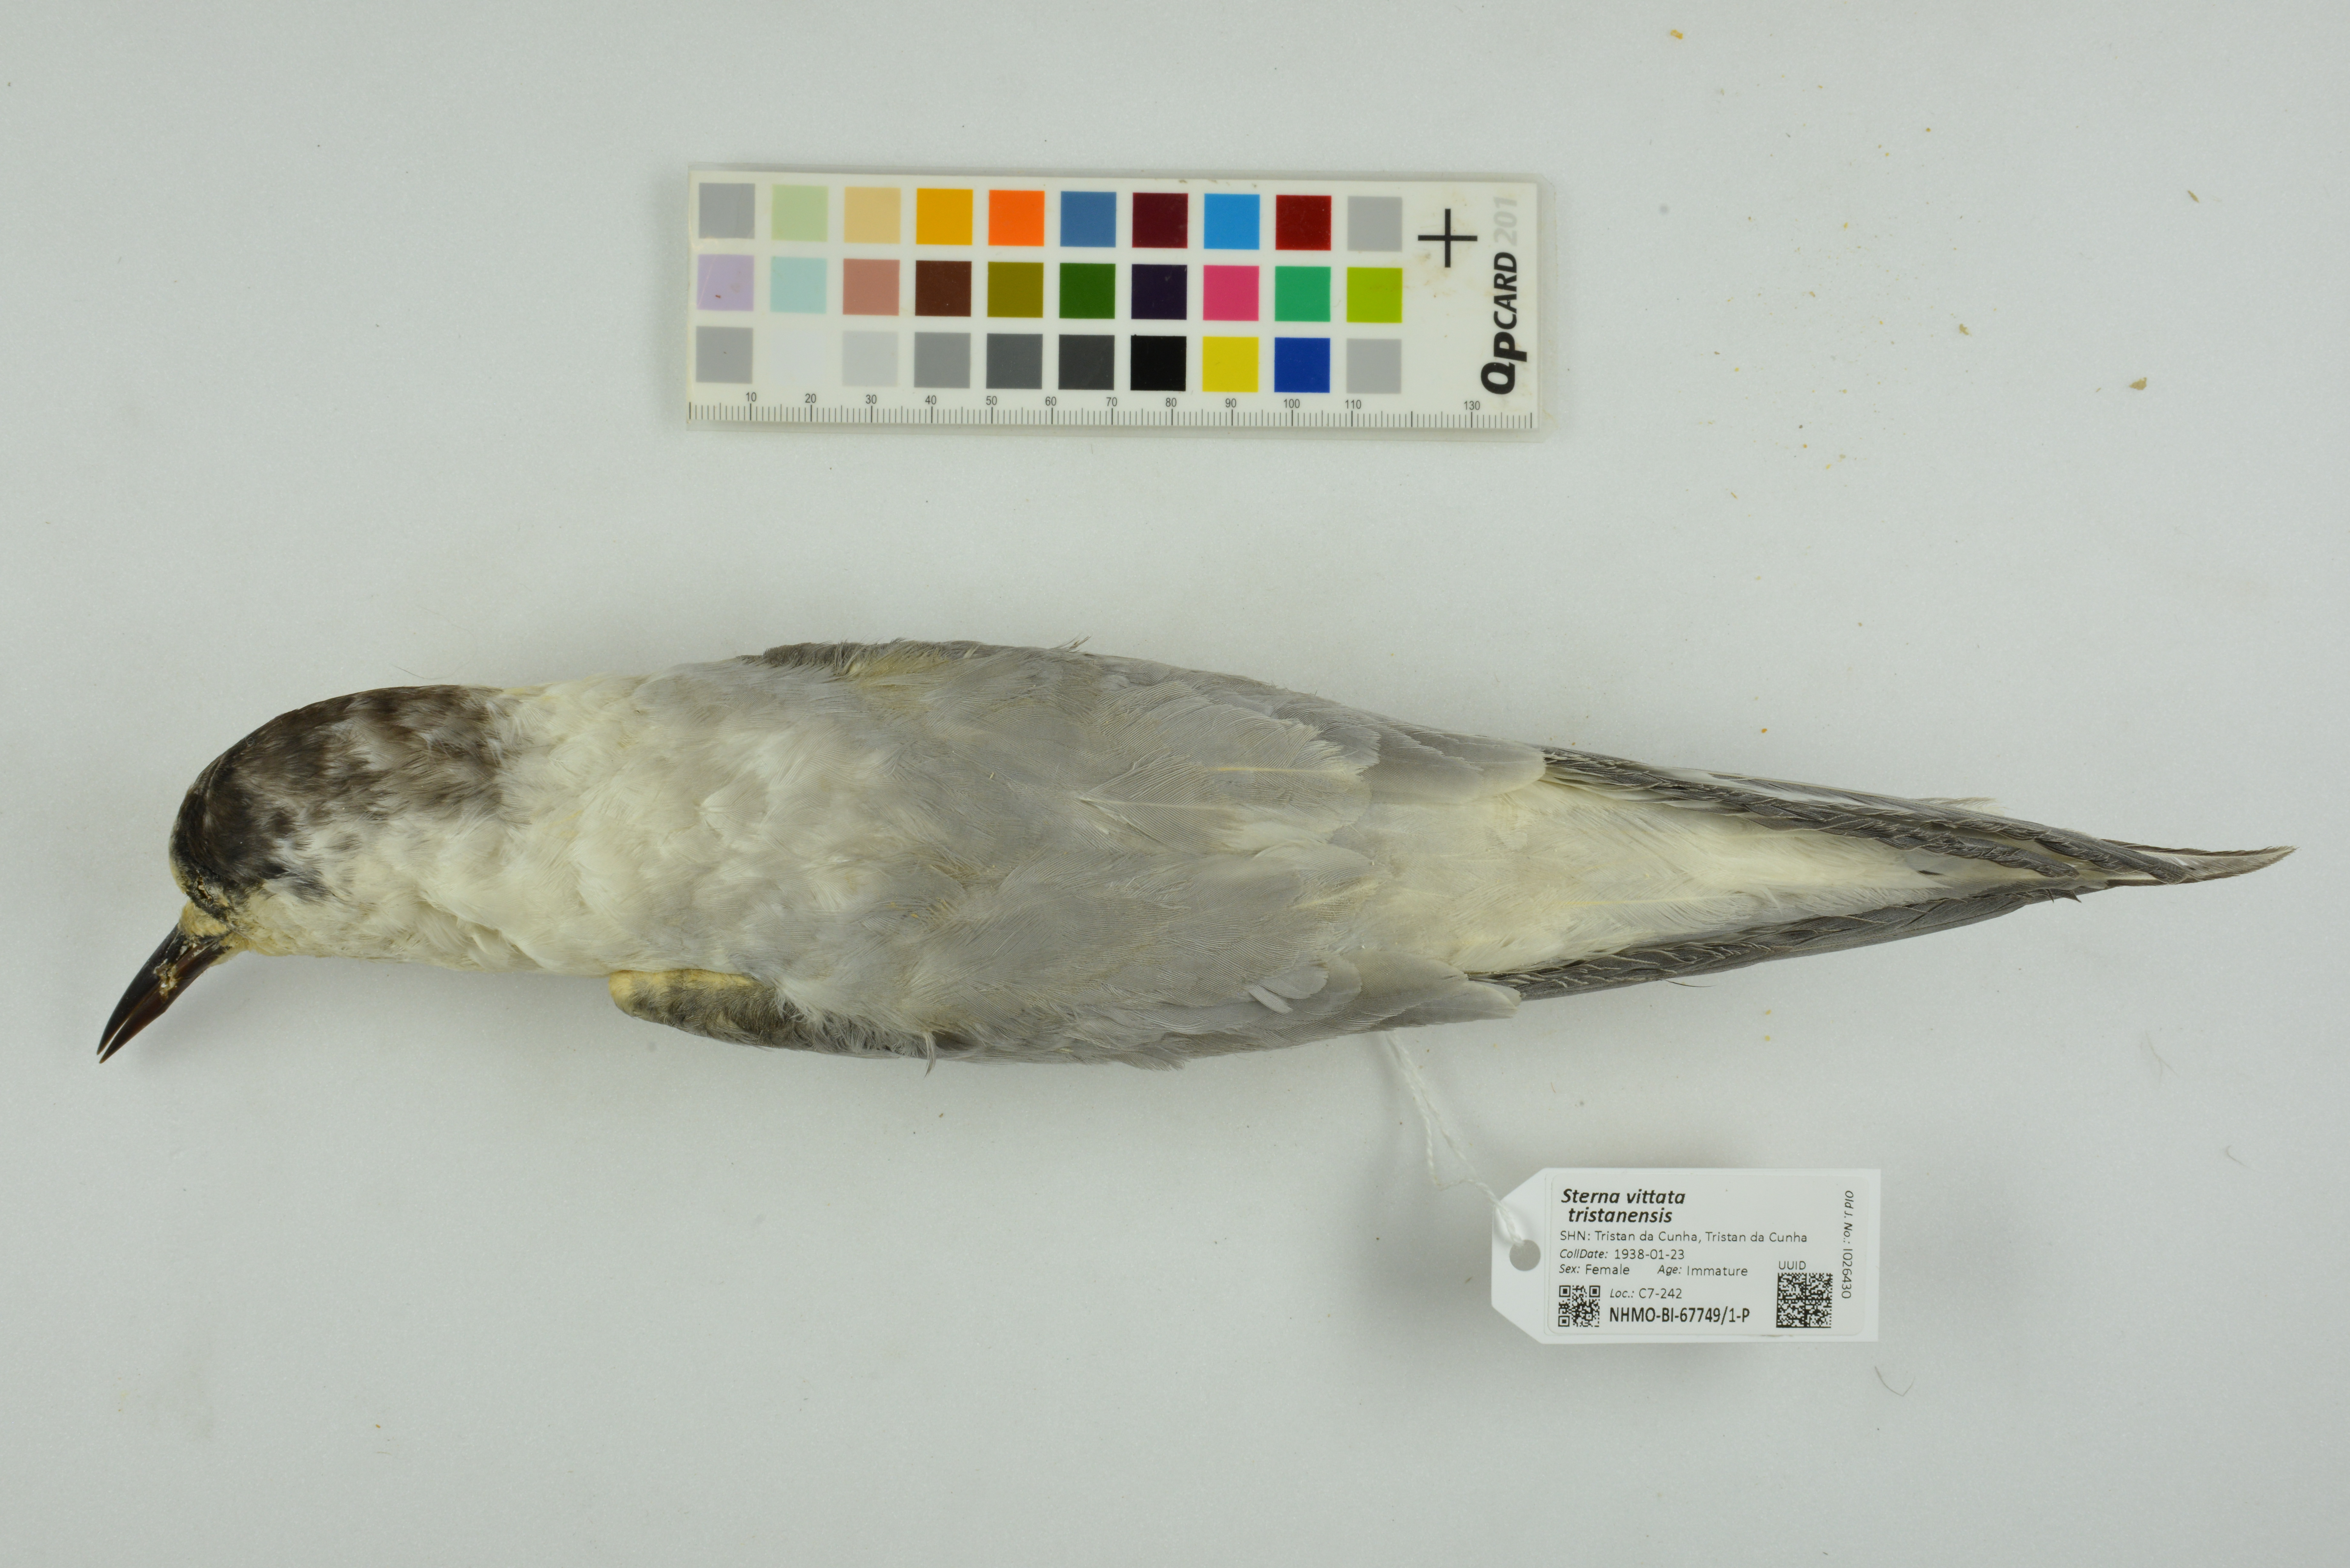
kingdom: Animalia
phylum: Chordata
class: Aves
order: Charadriiformes
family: Laridae
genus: Sterna
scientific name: Sterna vittata
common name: Antarctic tern
